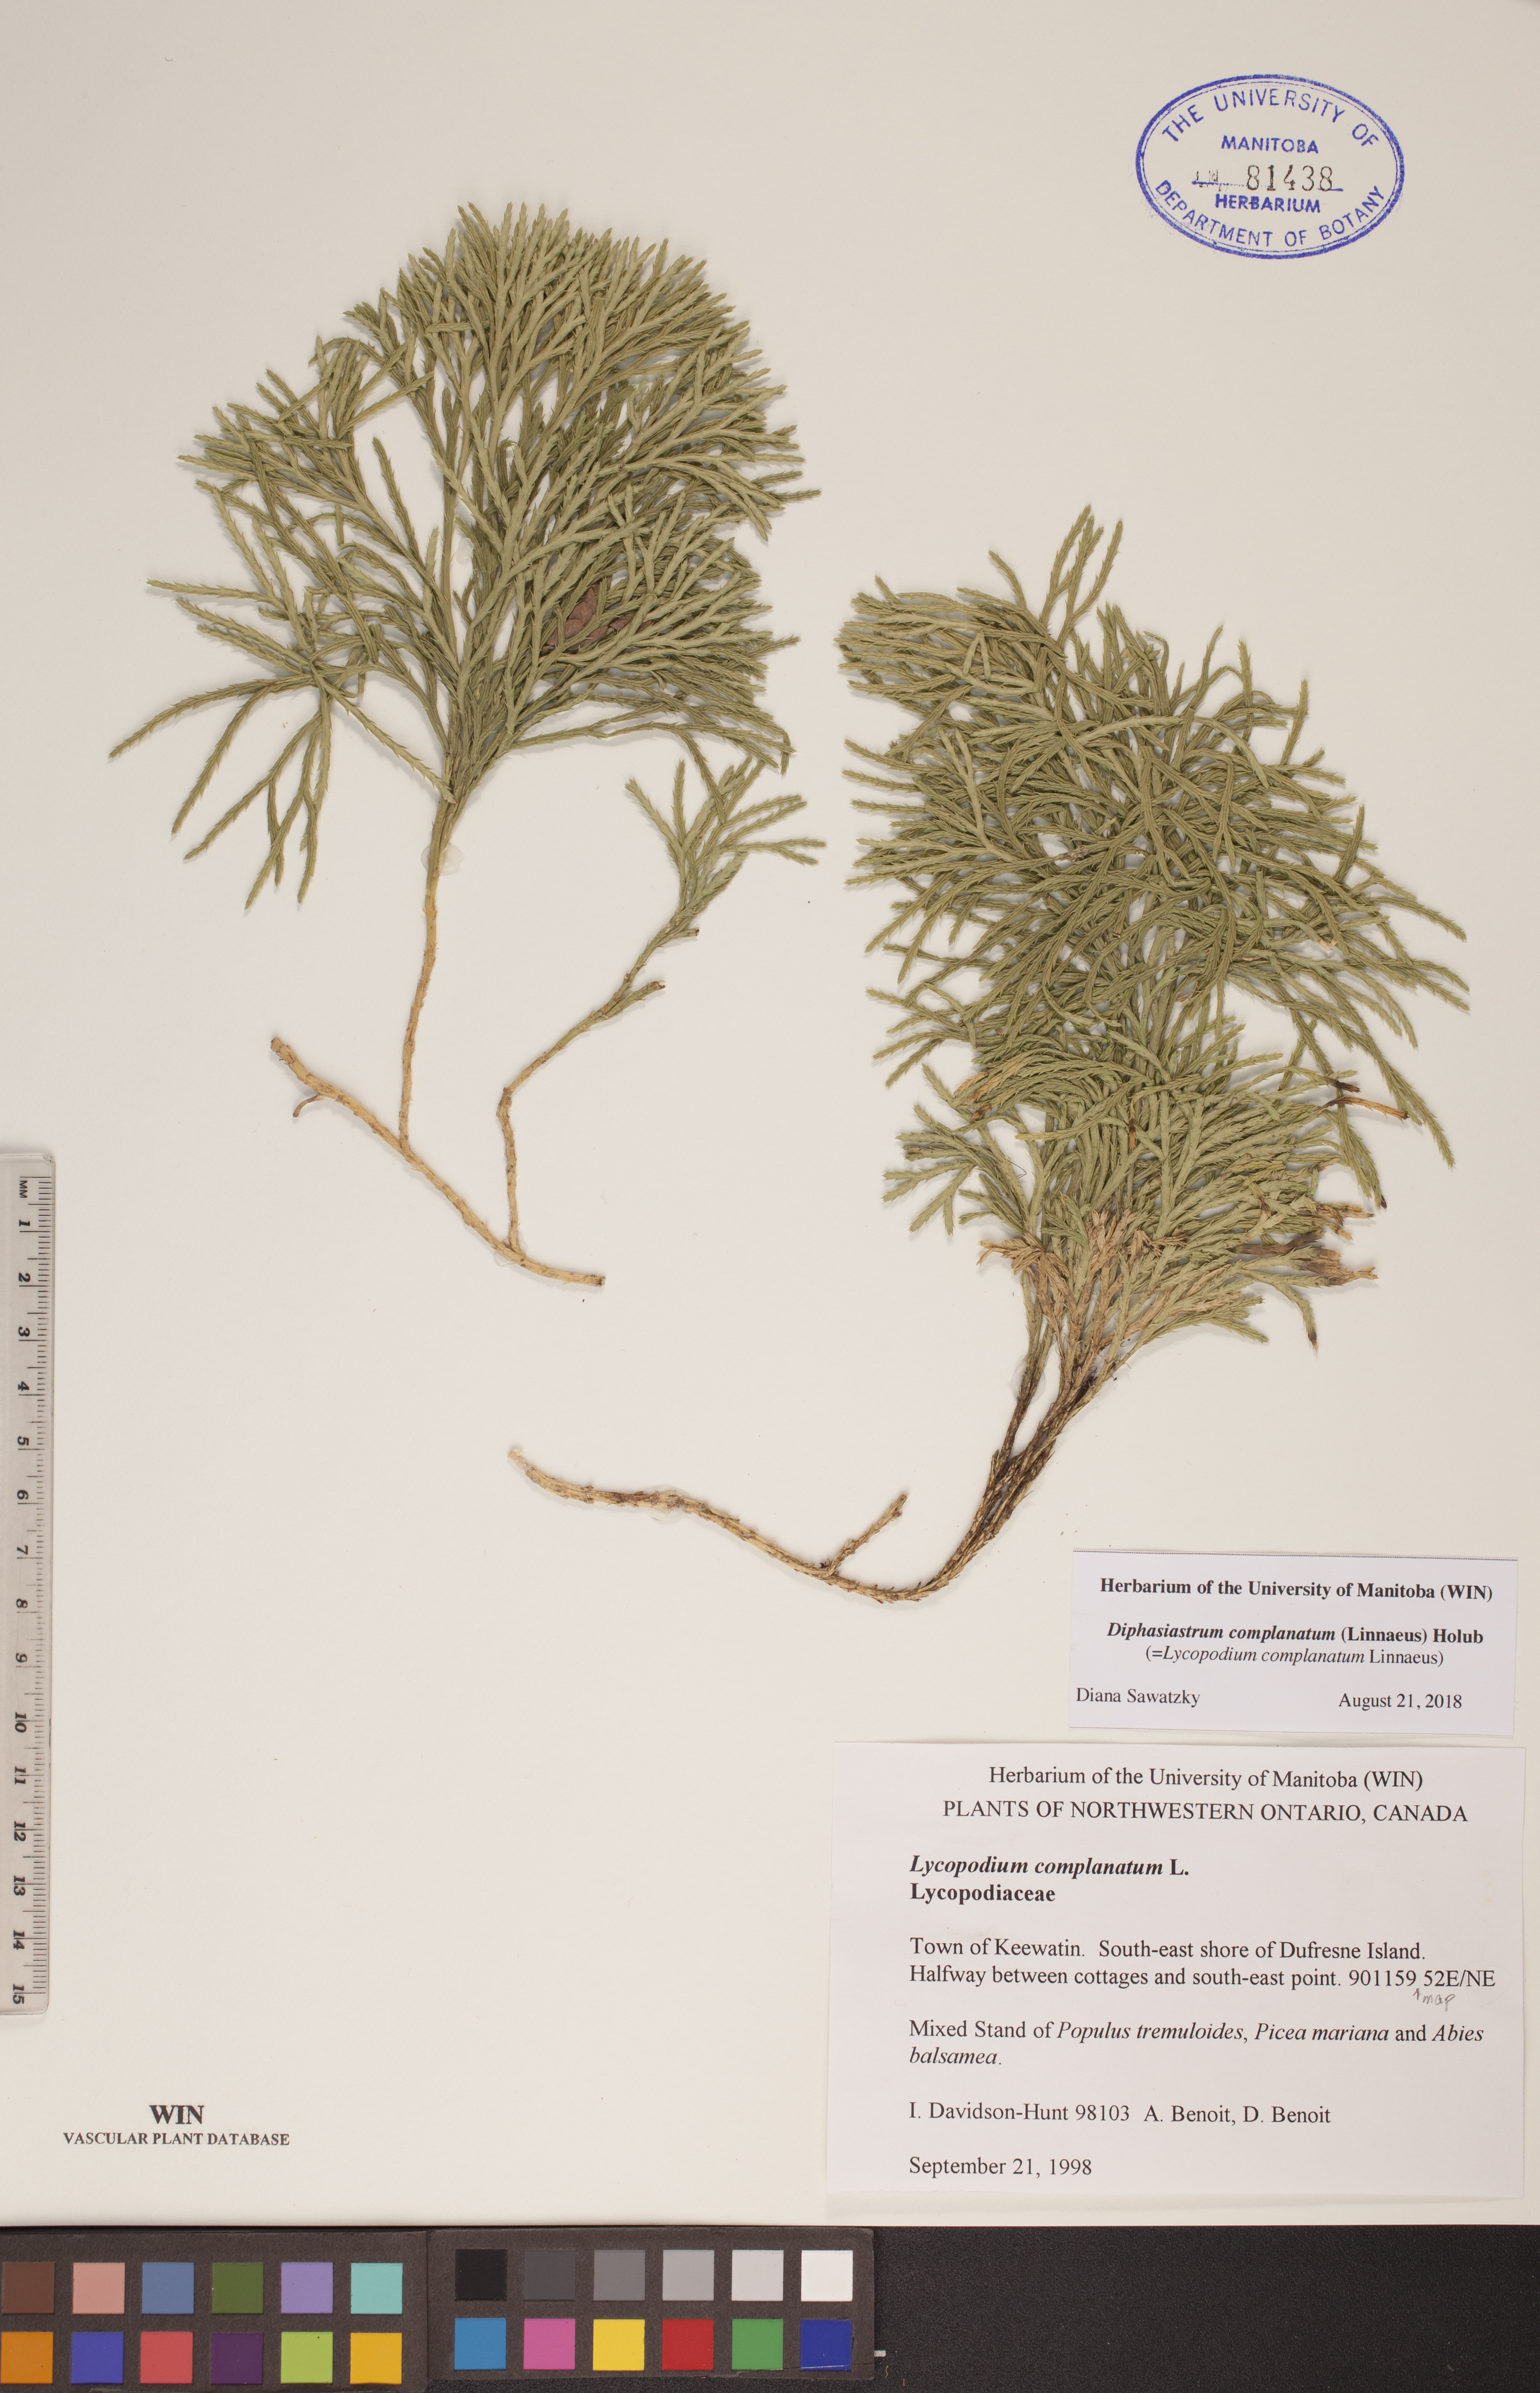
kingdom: Plantae
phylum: Tracheophyta
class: Lycopodiopsida
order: Lycopodiales
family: Lycopodiaceae
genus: Diphasiastrum
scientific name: Diphasiastrum complanatum
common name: Northern running-pine
